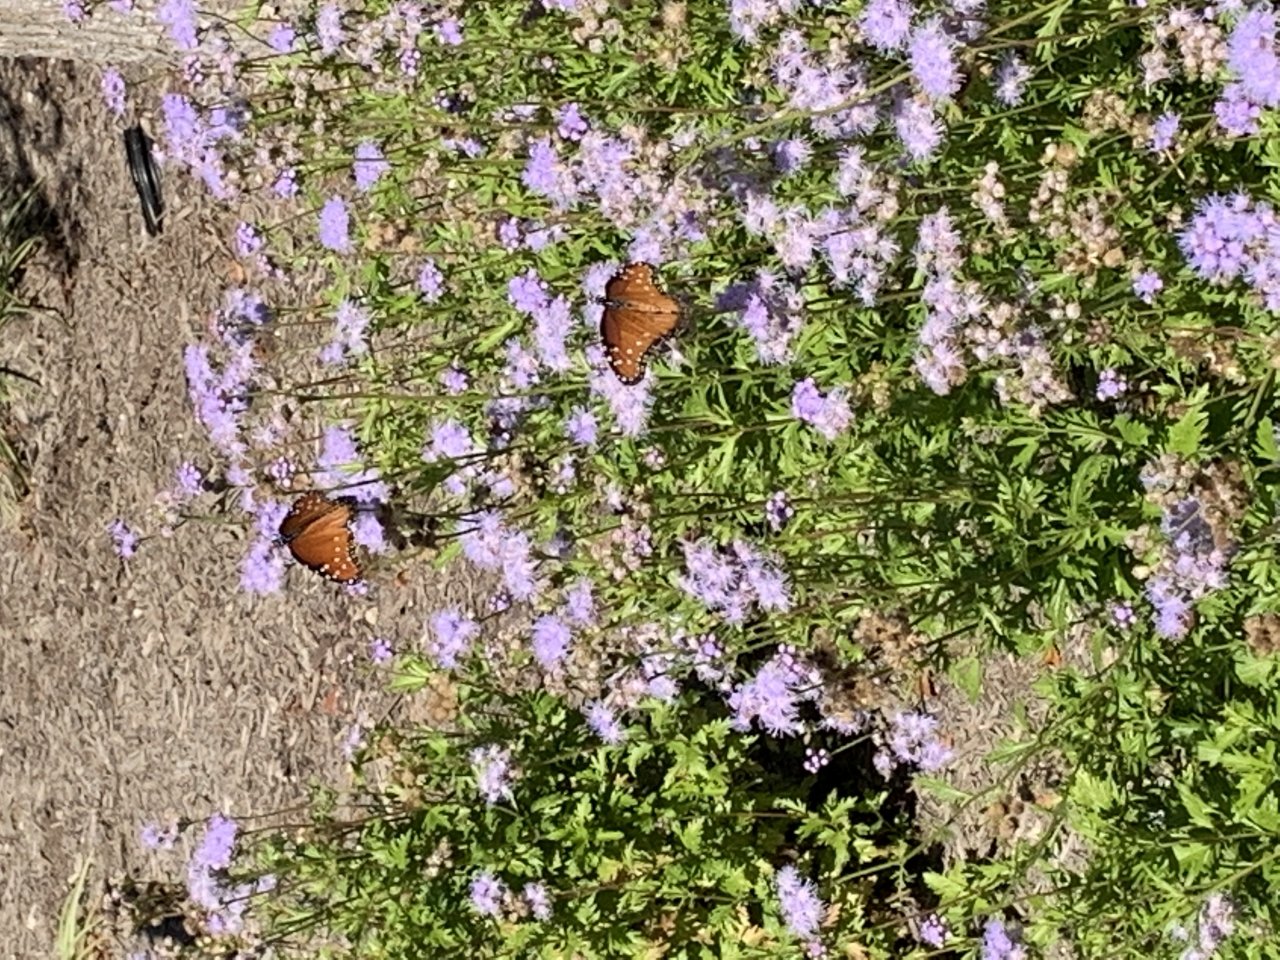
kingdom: Animalia
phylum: Arthropoda
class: Insecta
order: Lepidoptera
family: Nymphalidae
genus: Danaus
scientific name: Danaus gilippus
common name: Queen
